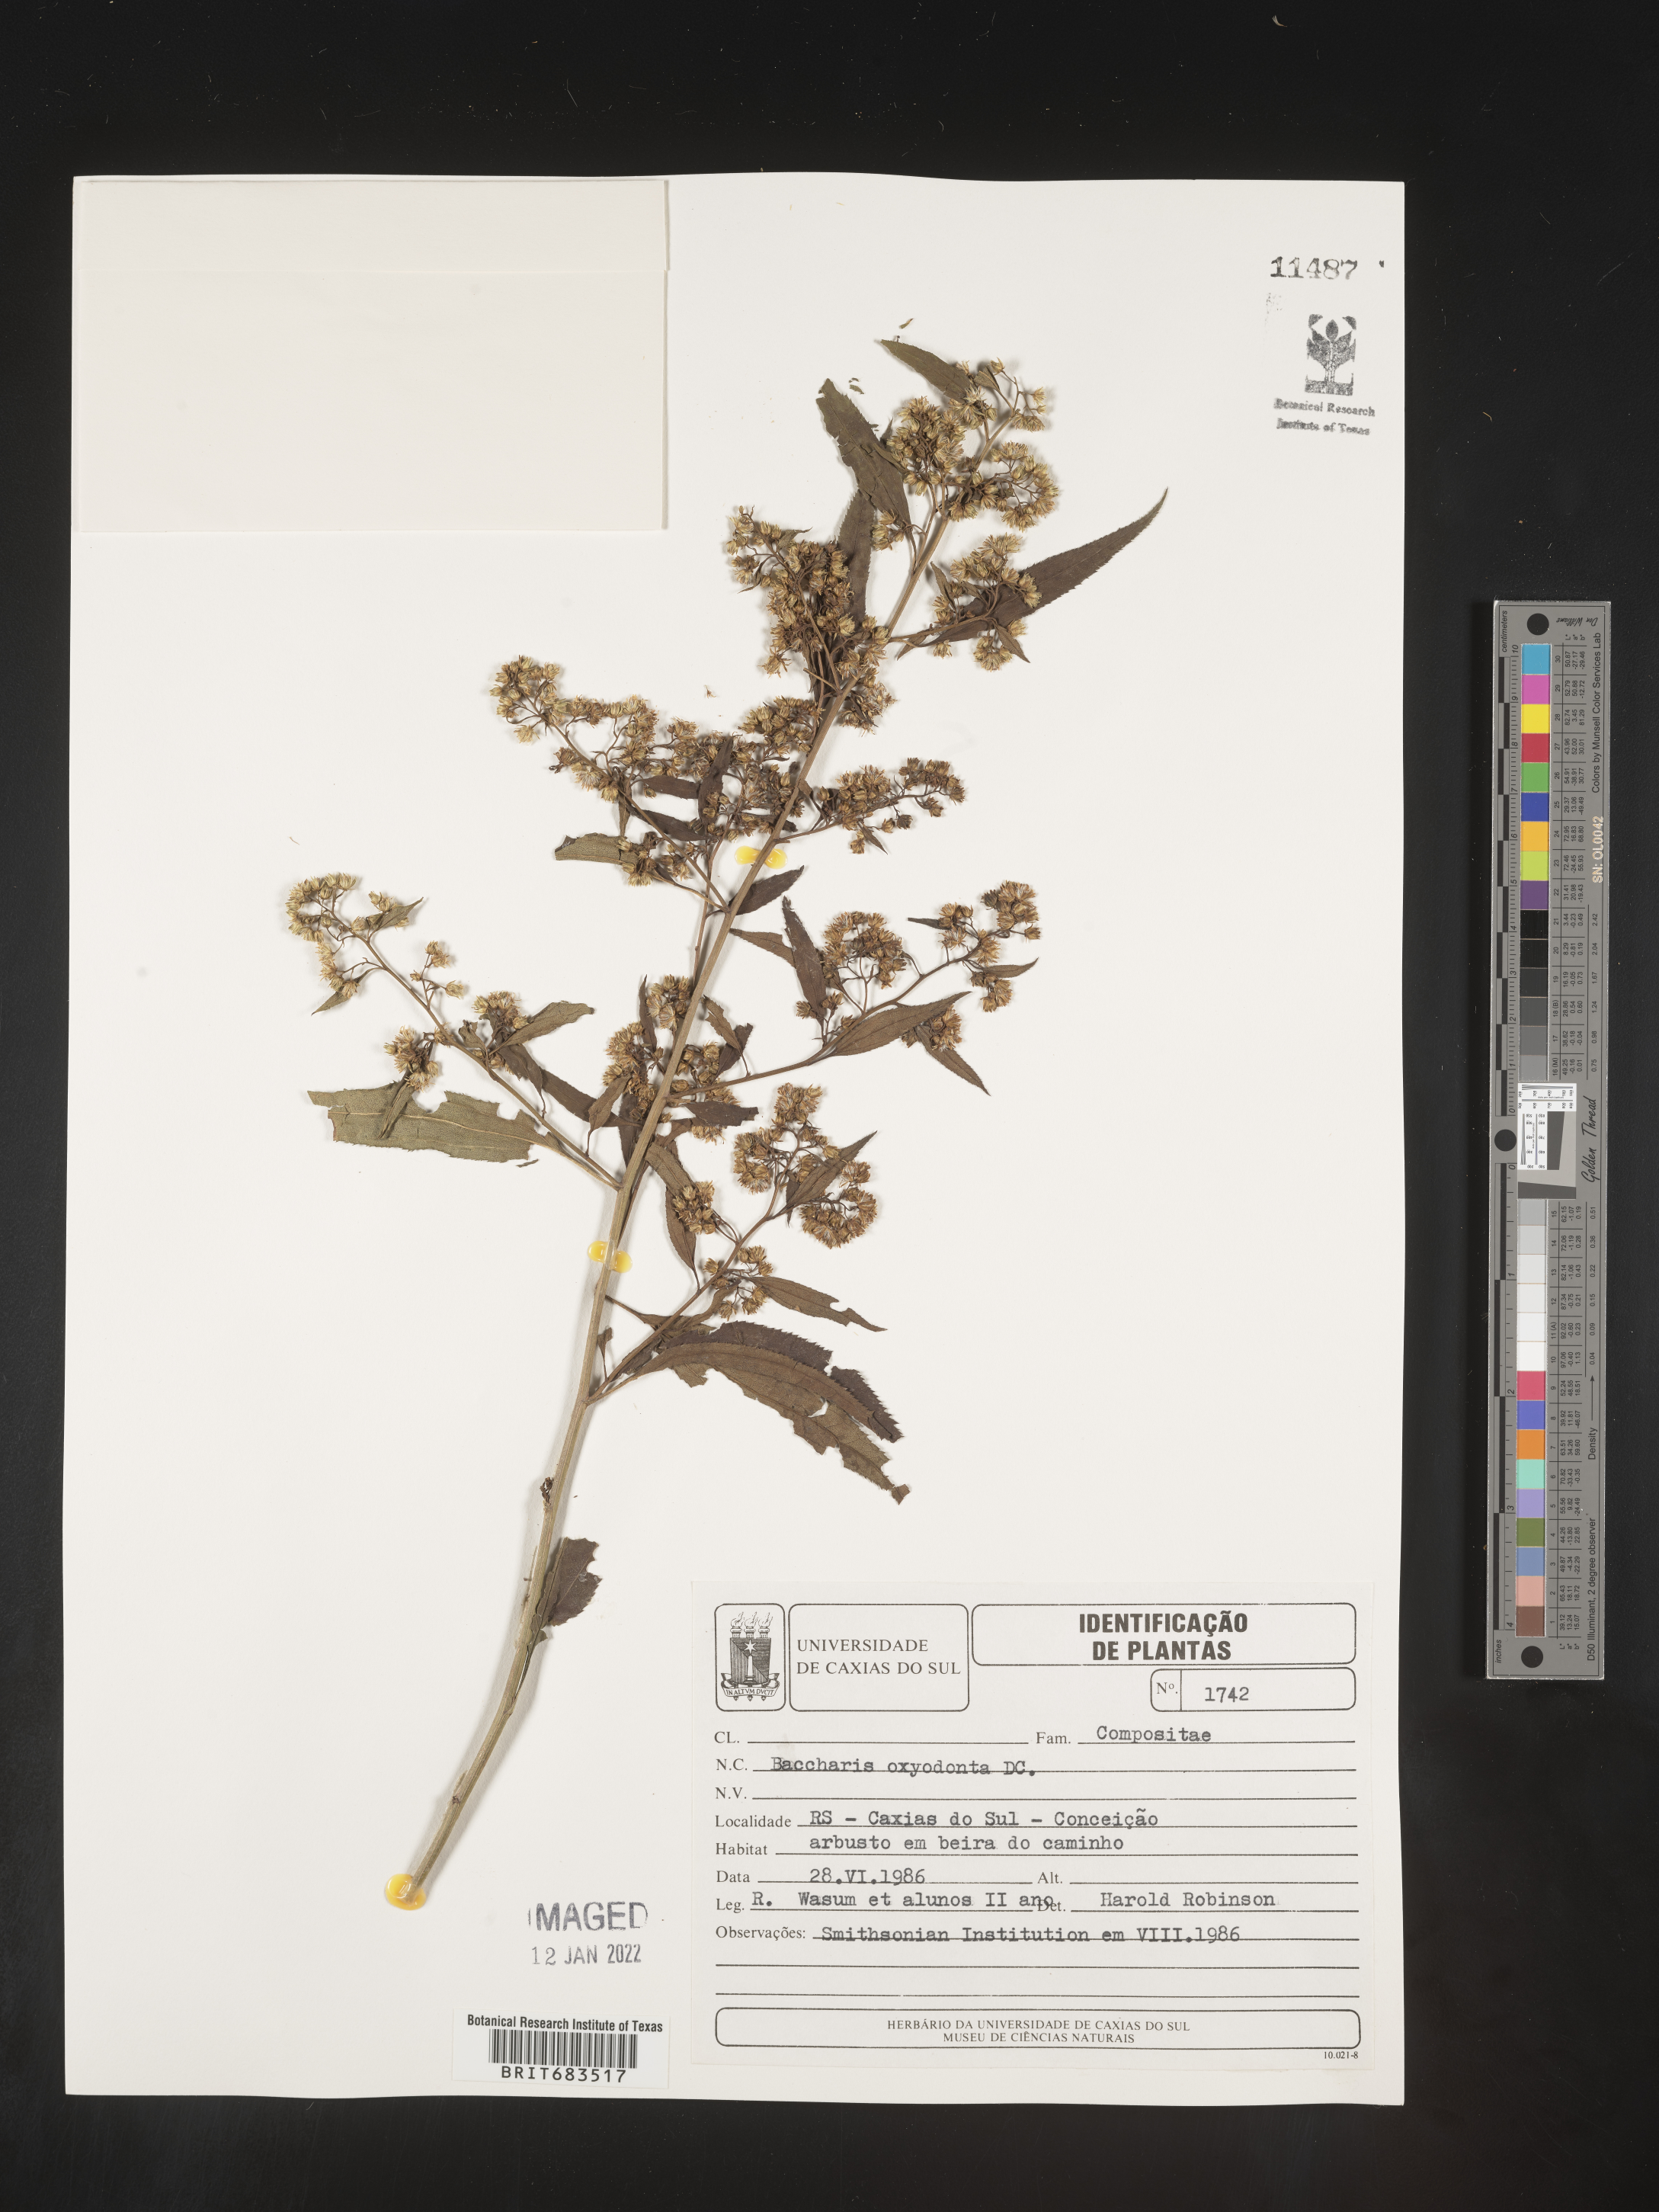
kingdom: Plantae
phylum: Tracheophyta
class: Magnoliopsida
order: Asterales
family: Asteraceae
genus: Baccharis
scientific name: Baccharis
